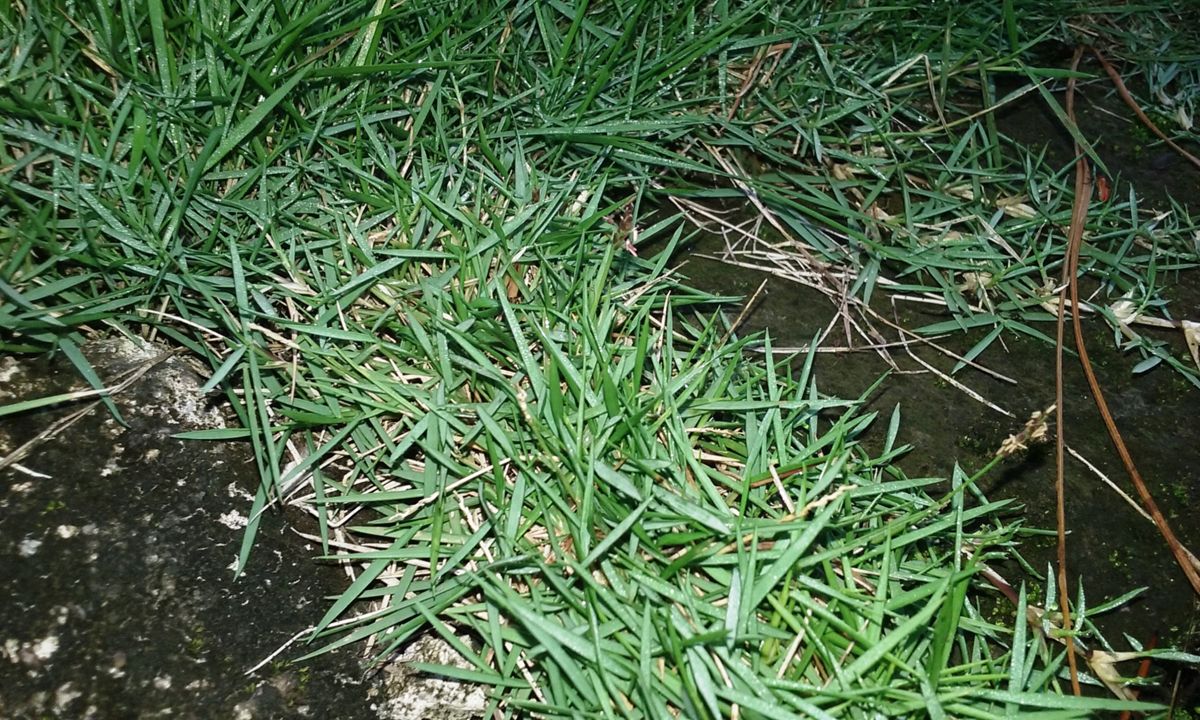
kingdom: Plantae
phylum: Tracheophyta
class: Liliopsida
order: Poales
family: Poaceae
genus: Zoysia
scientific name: Zoysia matrella
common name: Manila grass
